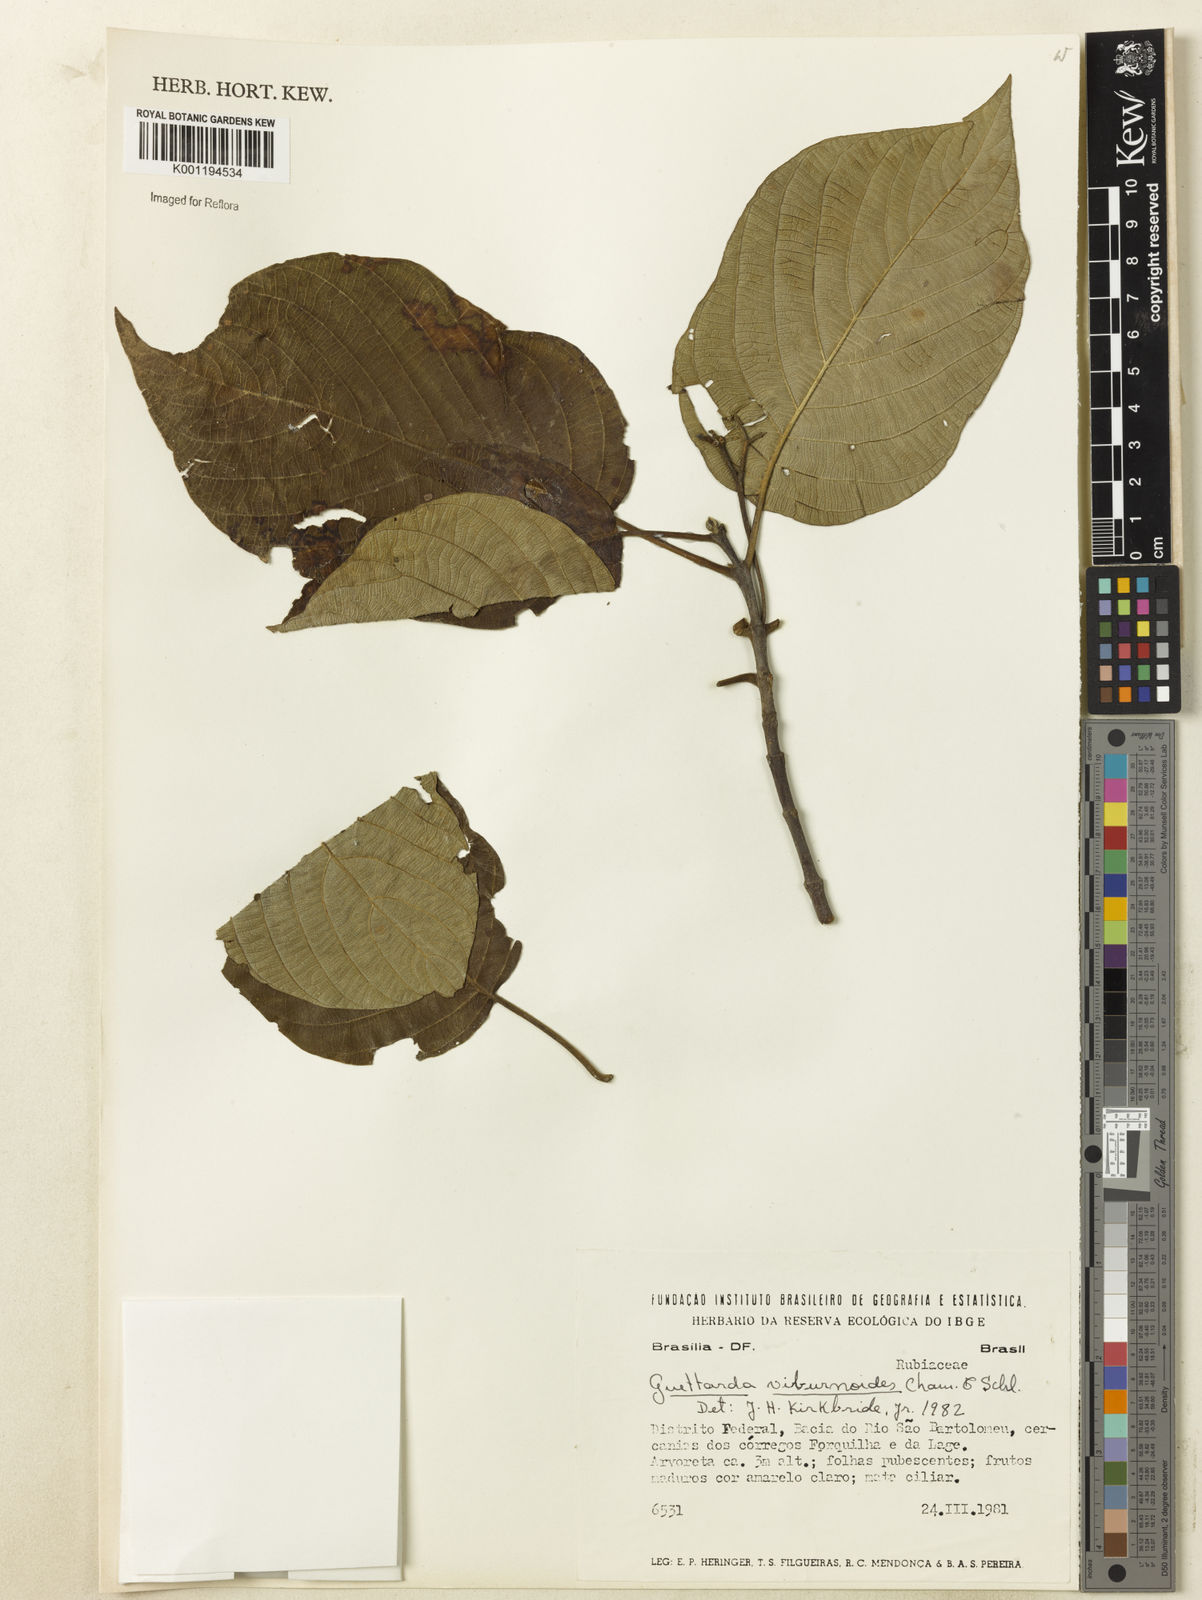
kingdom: Plantae
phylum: Tracheophyta
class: Magnoliopsida
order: Gentianales
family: Rubiaceae
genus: Guettarda
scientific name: Guettarda viburnoides
